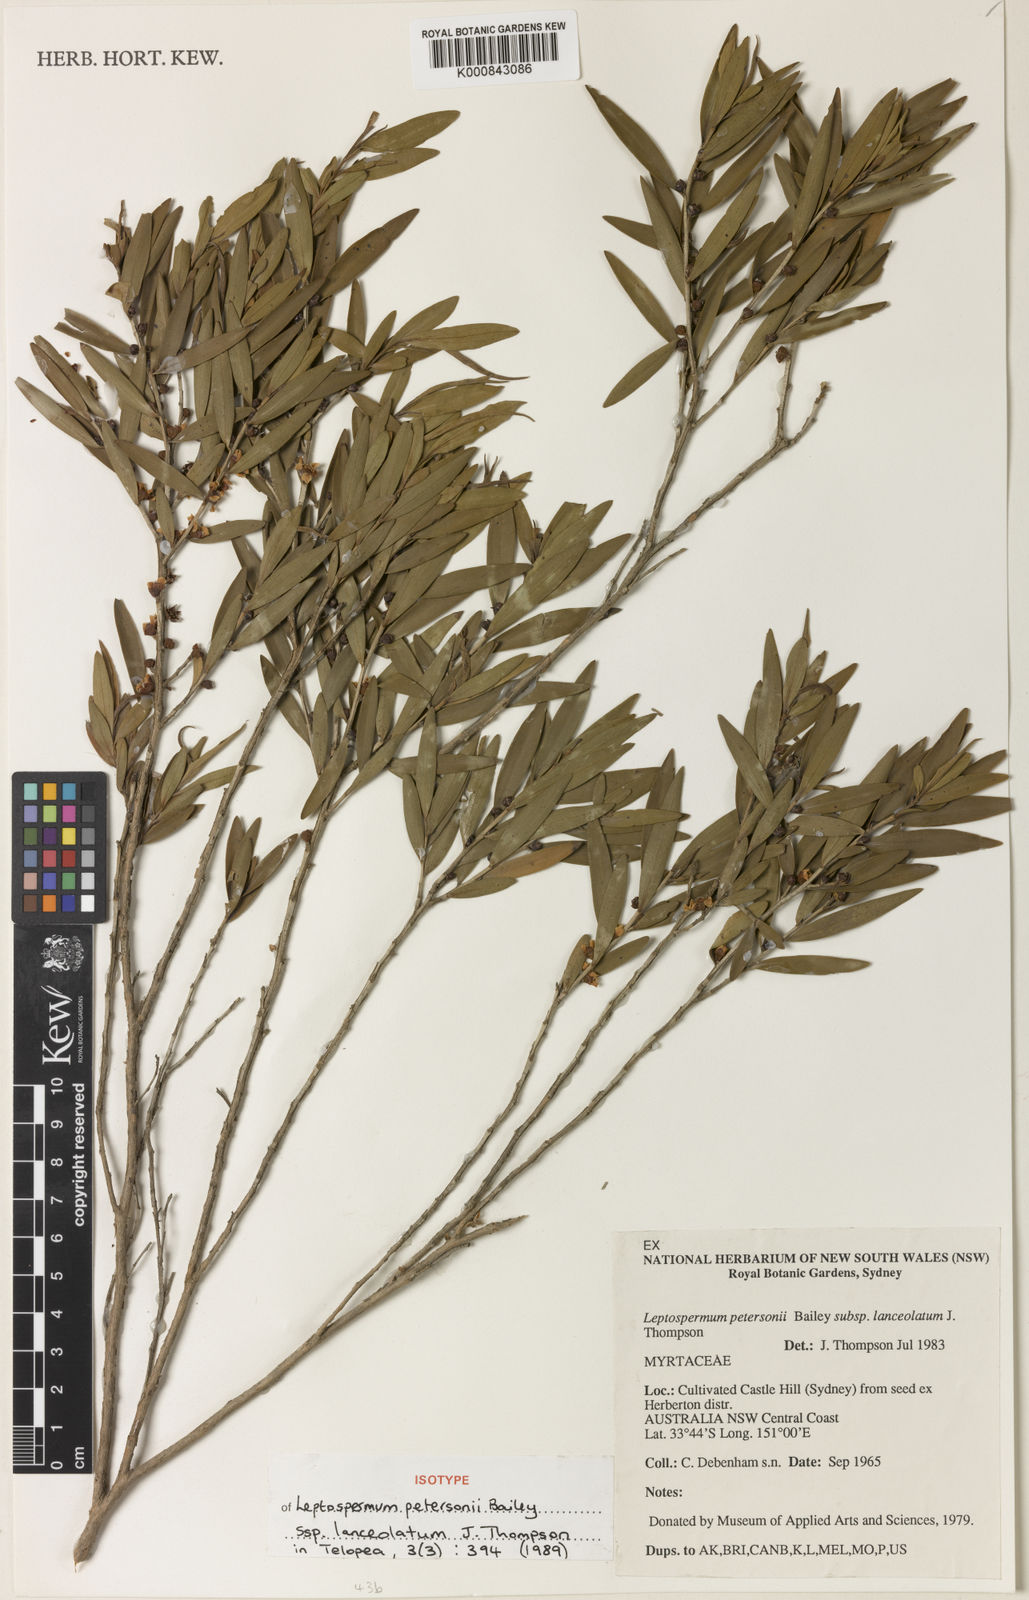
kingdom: Plantae
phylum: Tracheophyta
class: Magnoliopsida
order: Myrtales
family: Myrtaceae
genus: Leptospermum
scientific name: Leptospermum petersonii
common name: Common teatree
